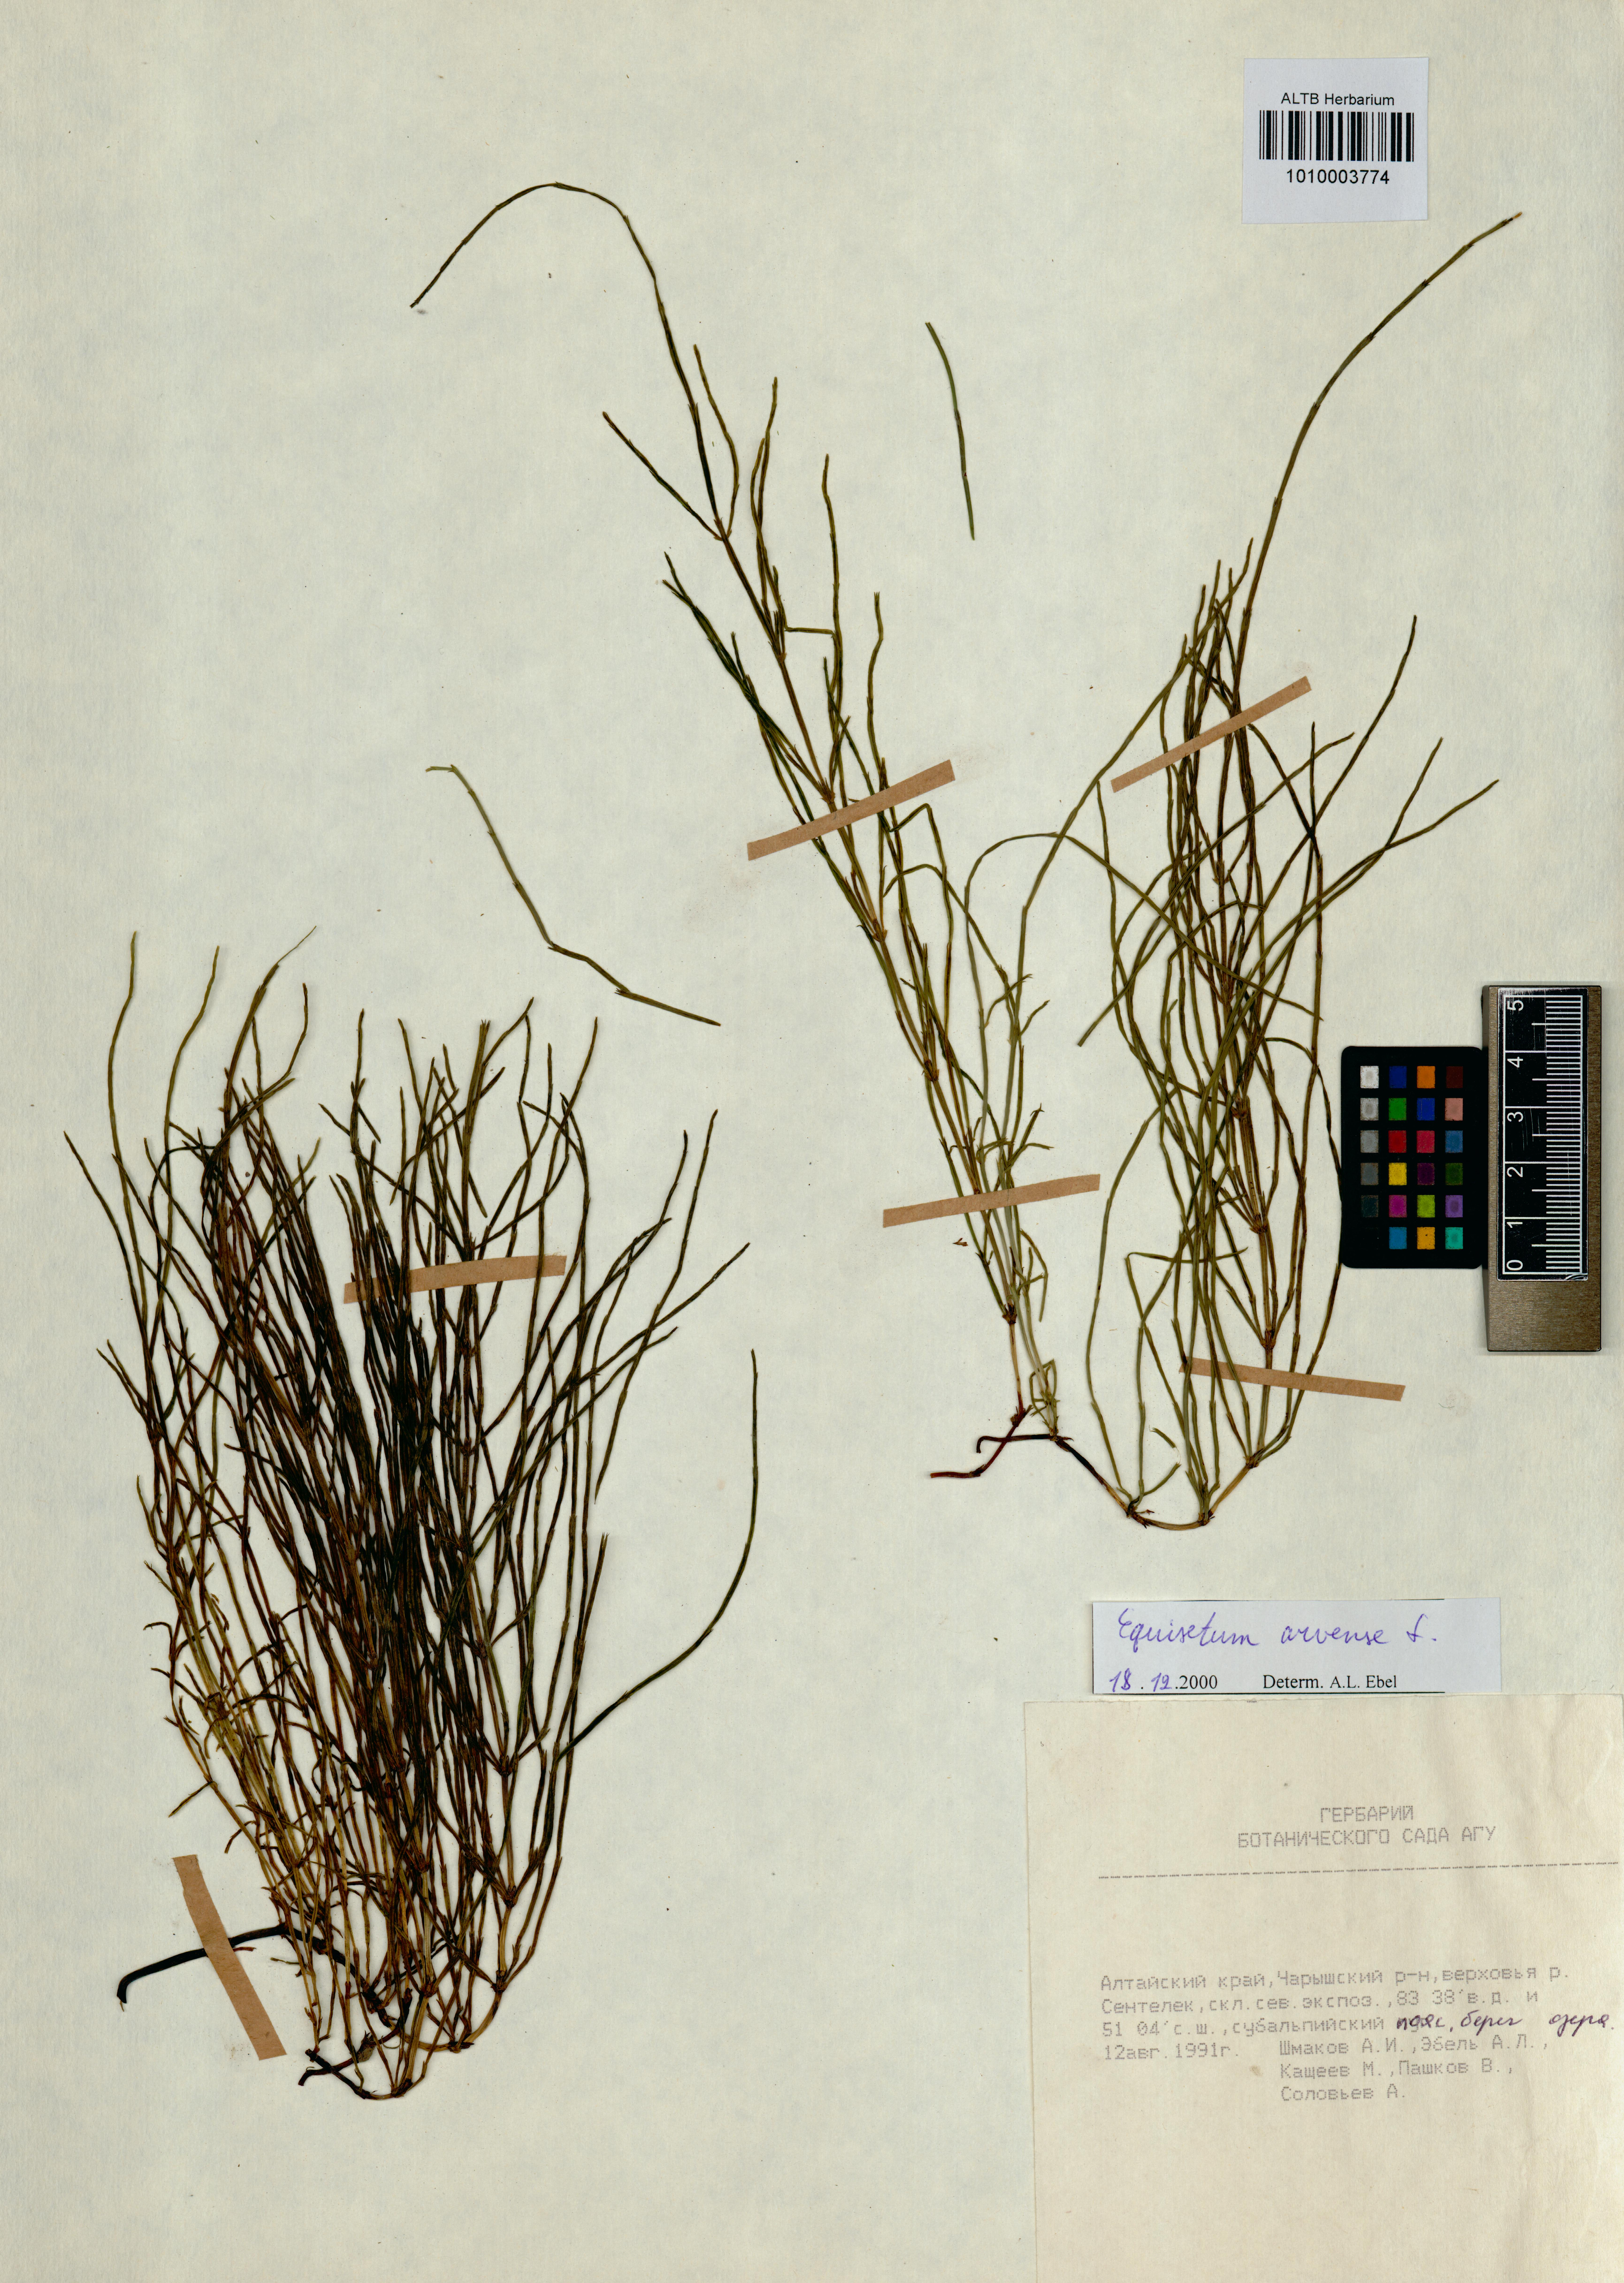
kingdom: Plantae
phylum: Tracheophyta
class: Polypodiopsida
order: Equisetales
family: Equisetaceae
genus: Equisetum
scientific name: Equisetum arvense
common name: Field horsetail
